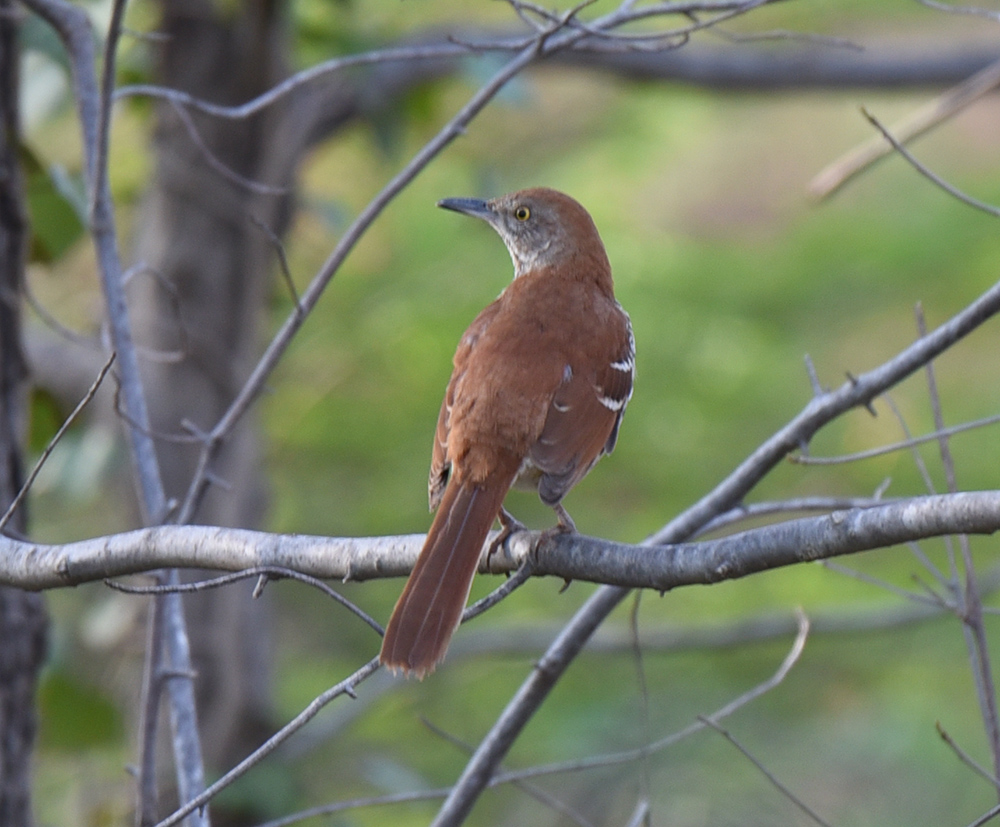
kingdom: Animalia
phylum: Chordata
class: Aves
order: Passeriformes
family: Mimidae
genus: Toxostoma
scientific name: Toxostoma rufum
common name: Brown thrasher
